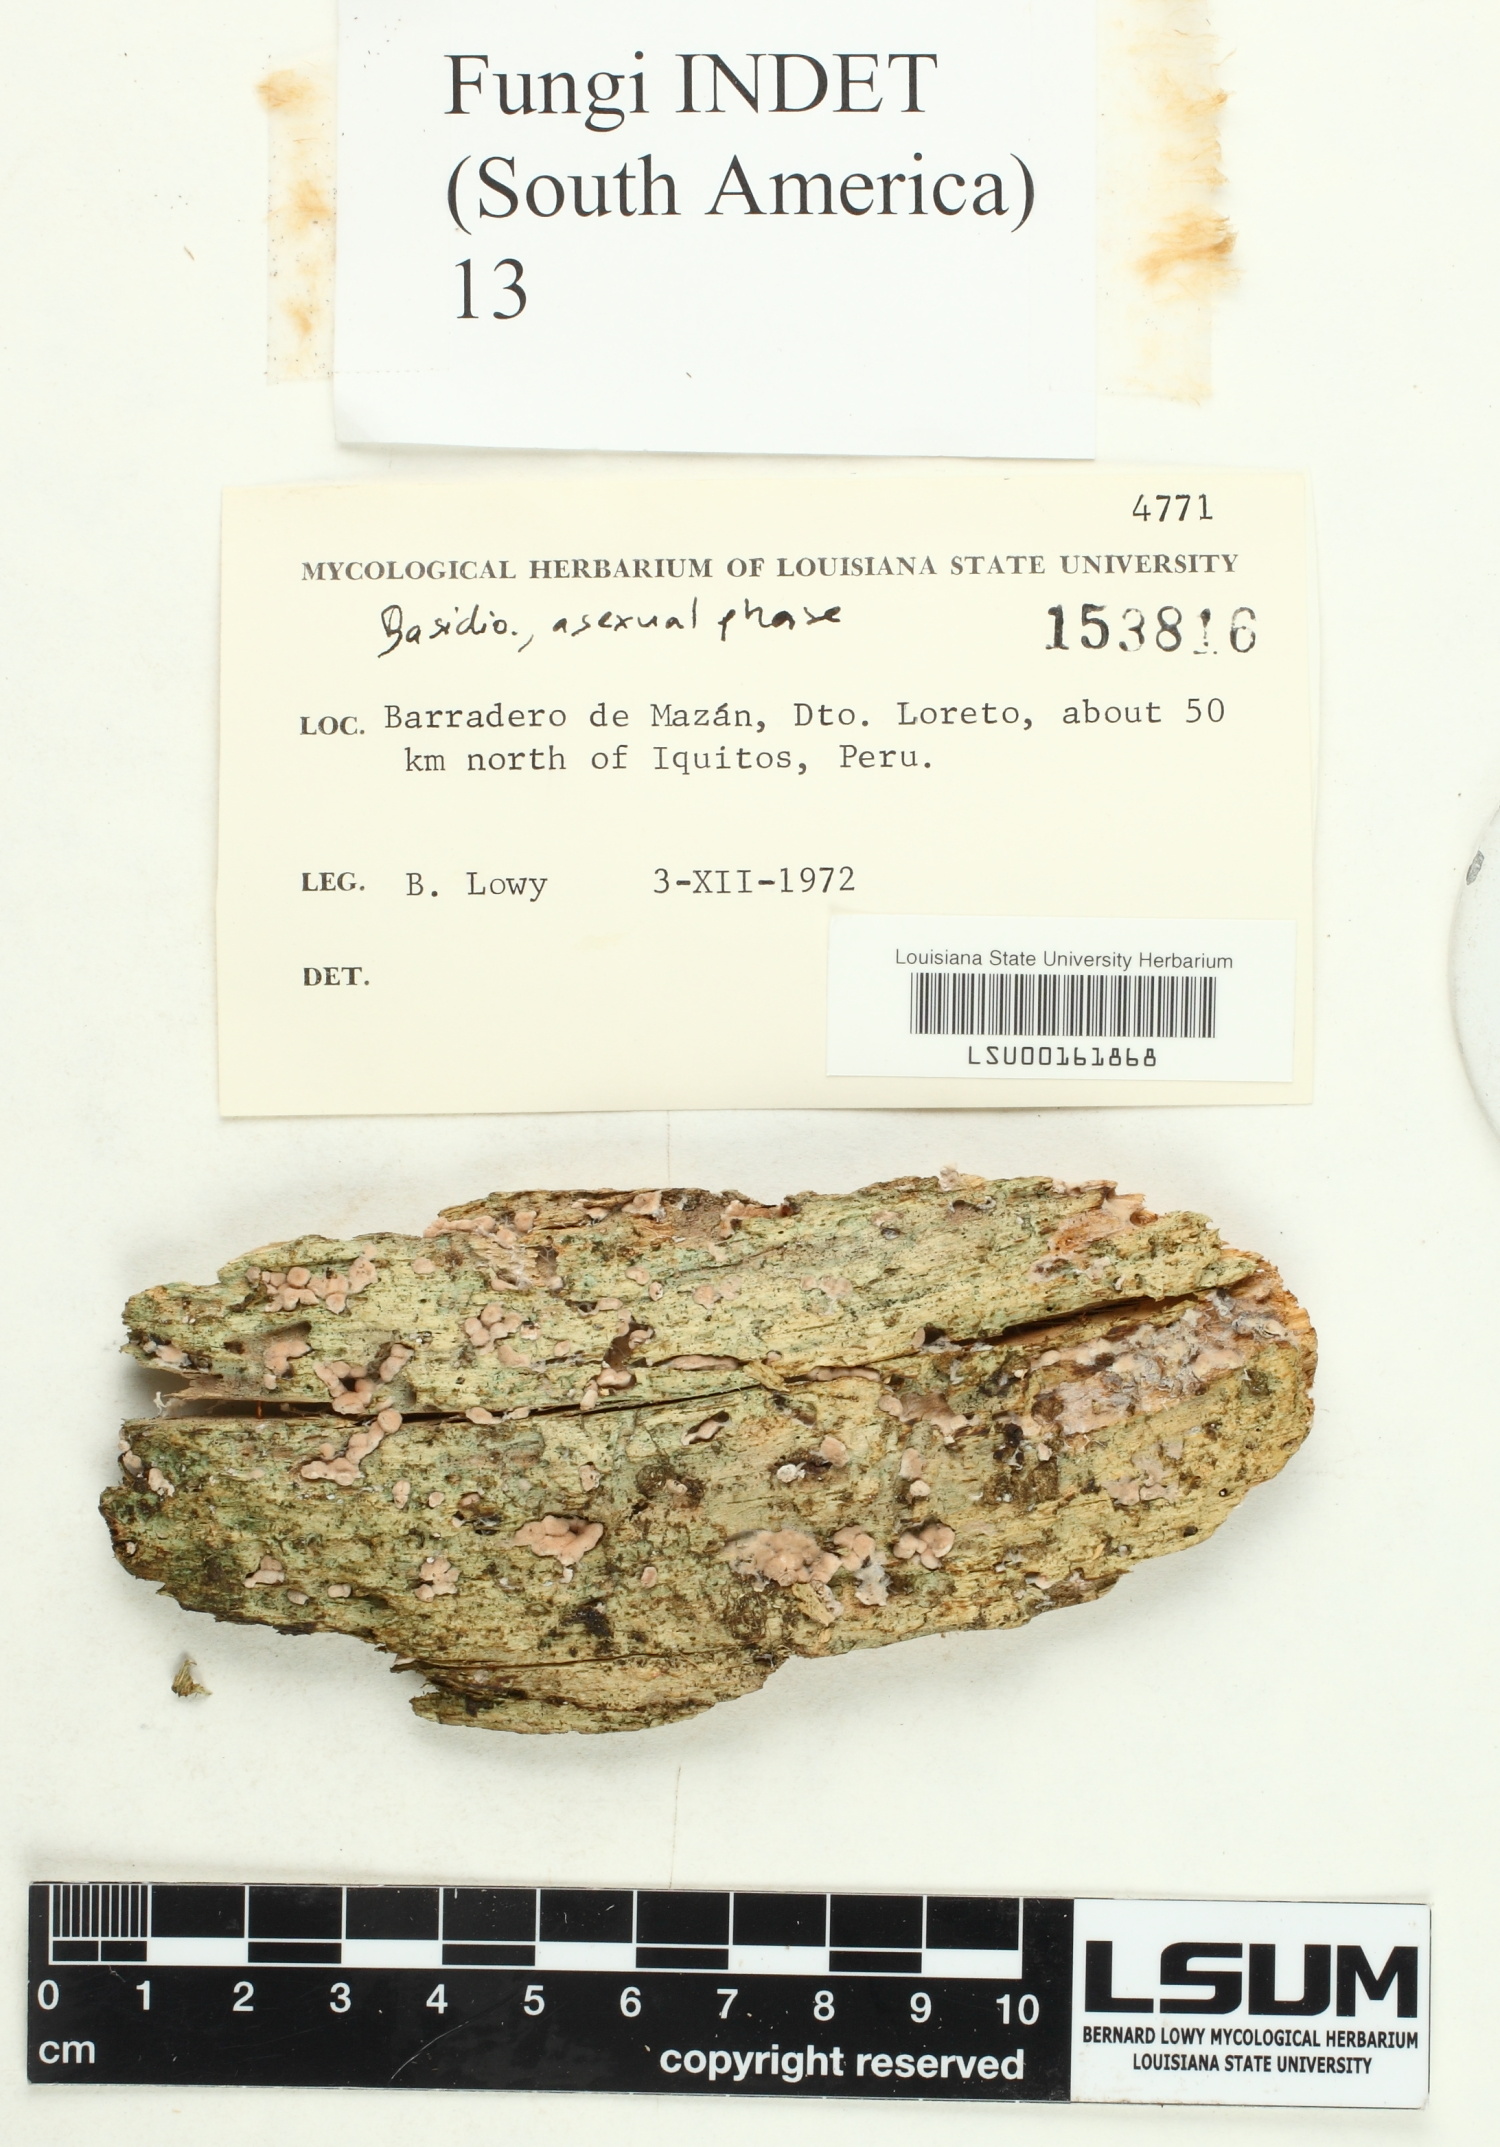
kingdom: Fungi
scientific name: Fungi
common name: Fungi
